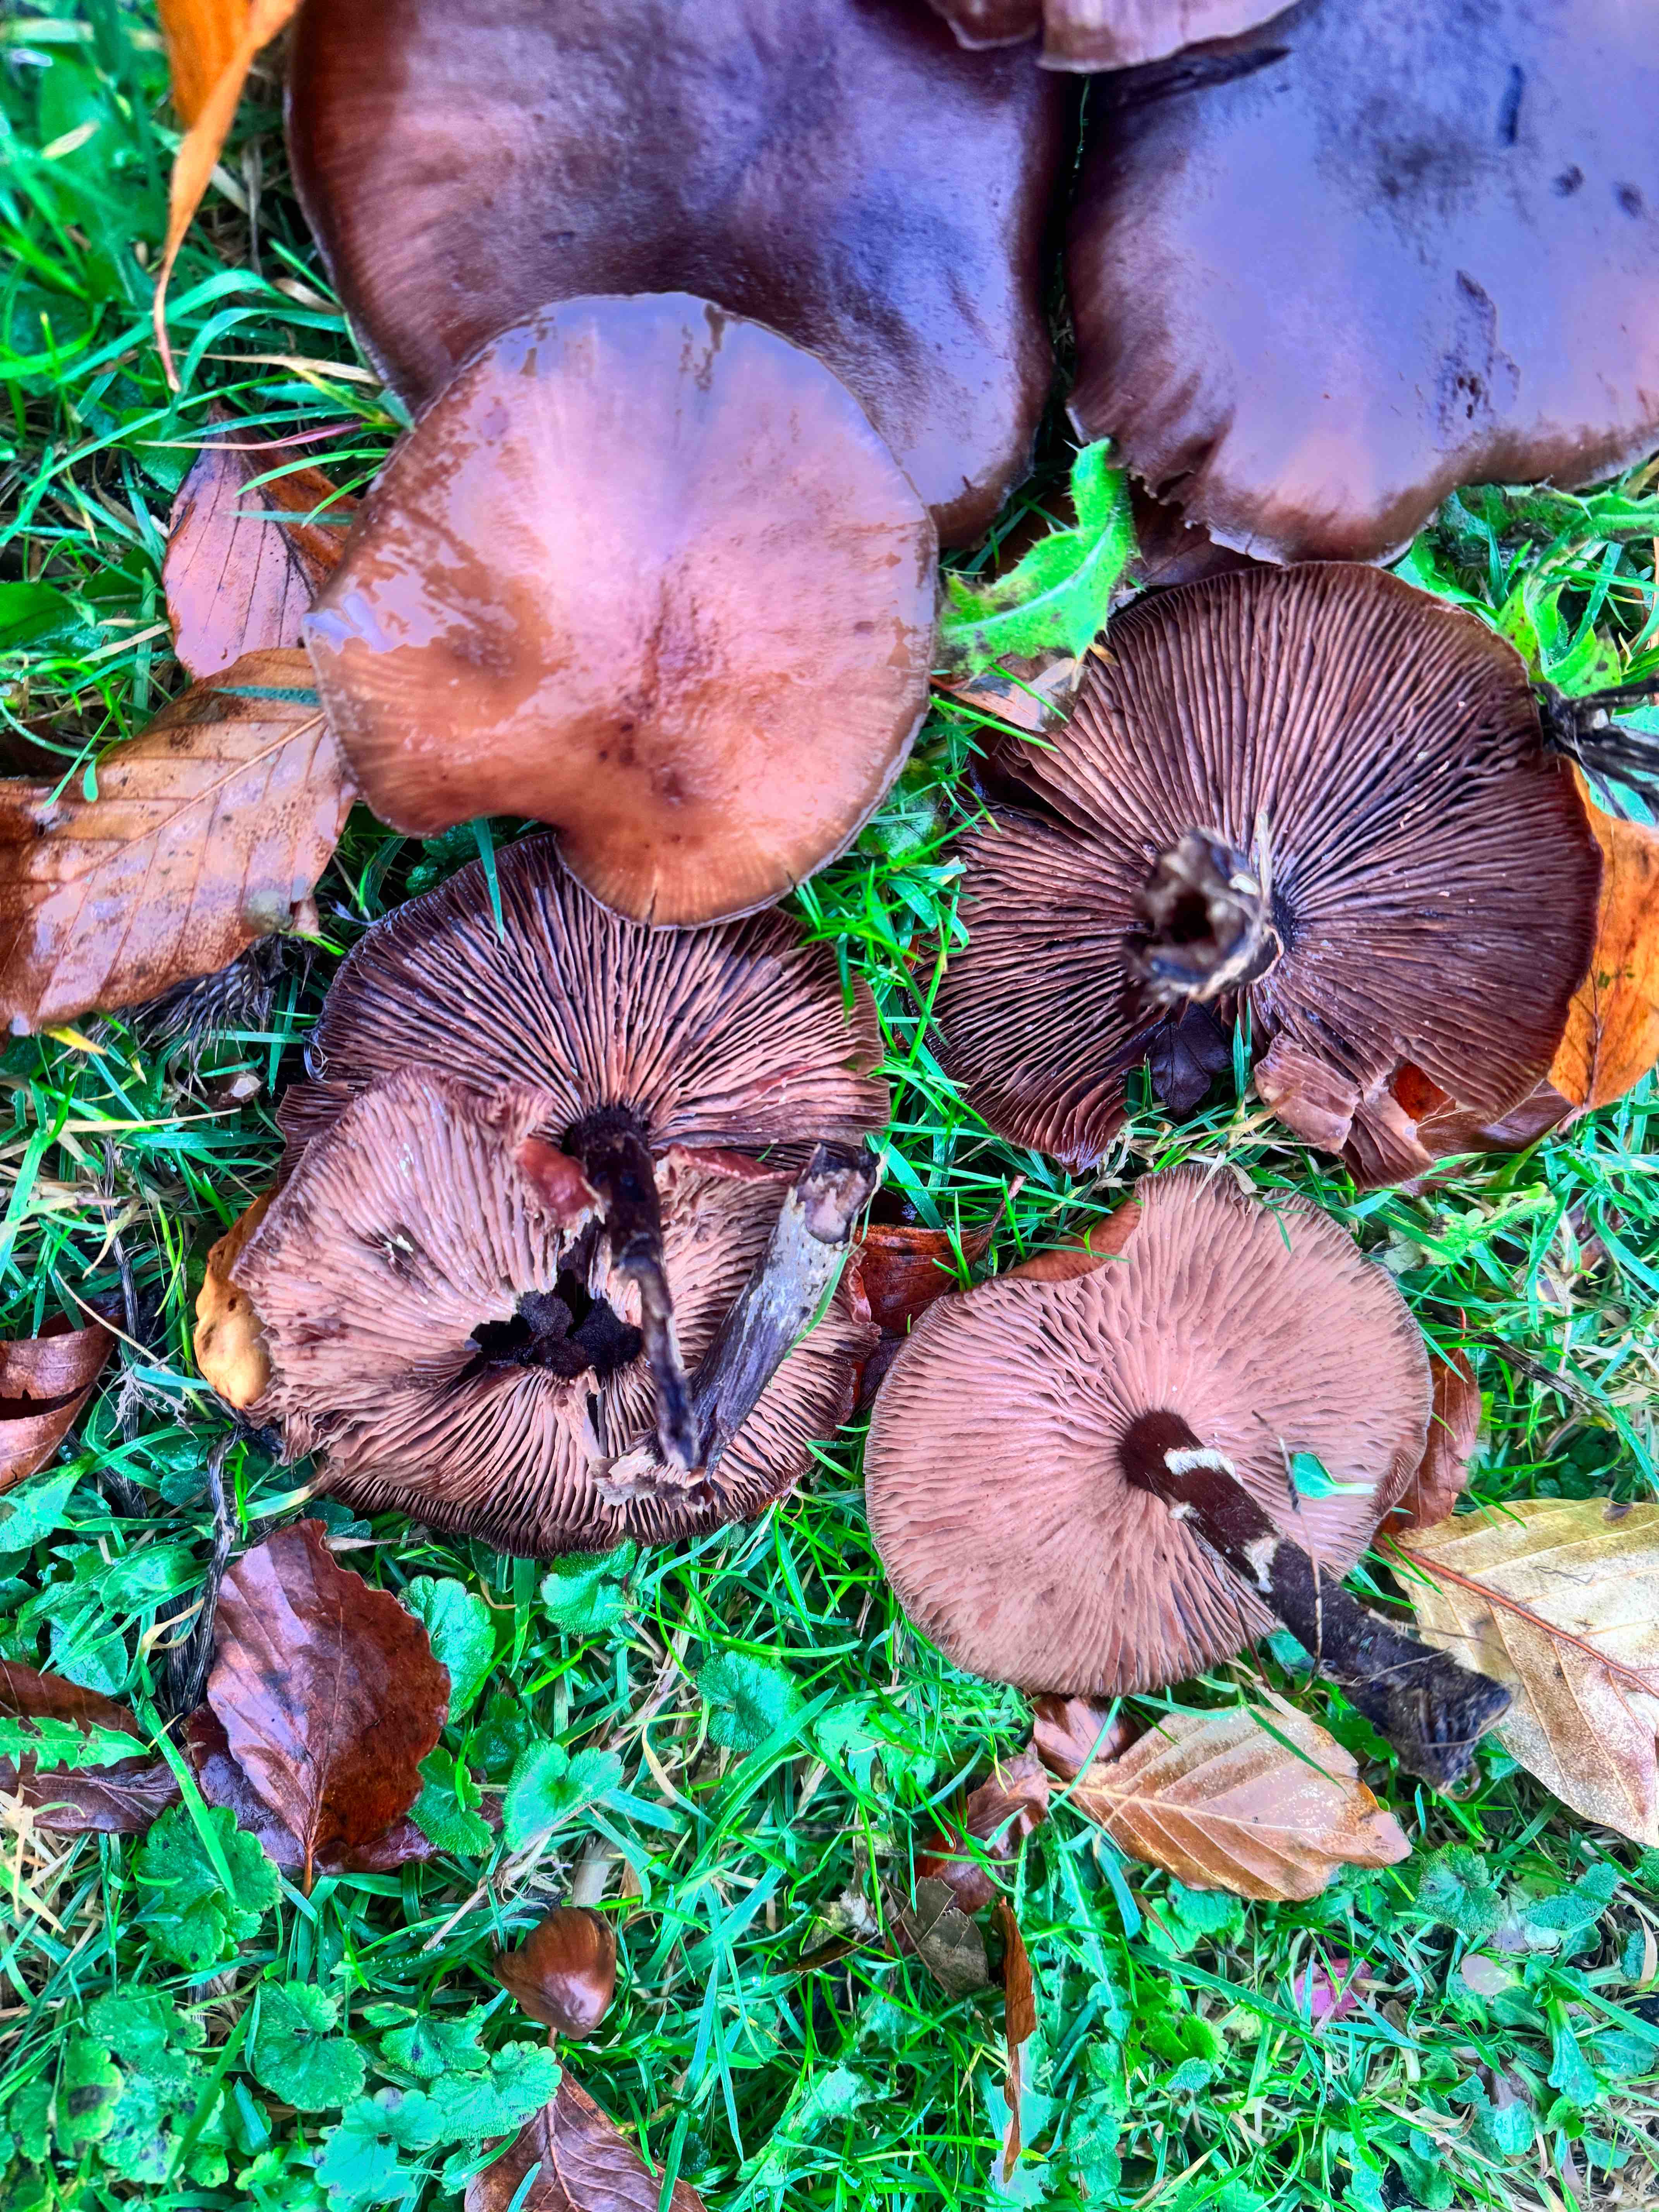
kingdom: Fungi
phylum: Basidiomycota
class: Agaricomycetes
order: Agaricales
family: Physalacriaceae
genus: Armillaria
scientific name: Armillaria ostoyae
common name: mørk honningsvamp
